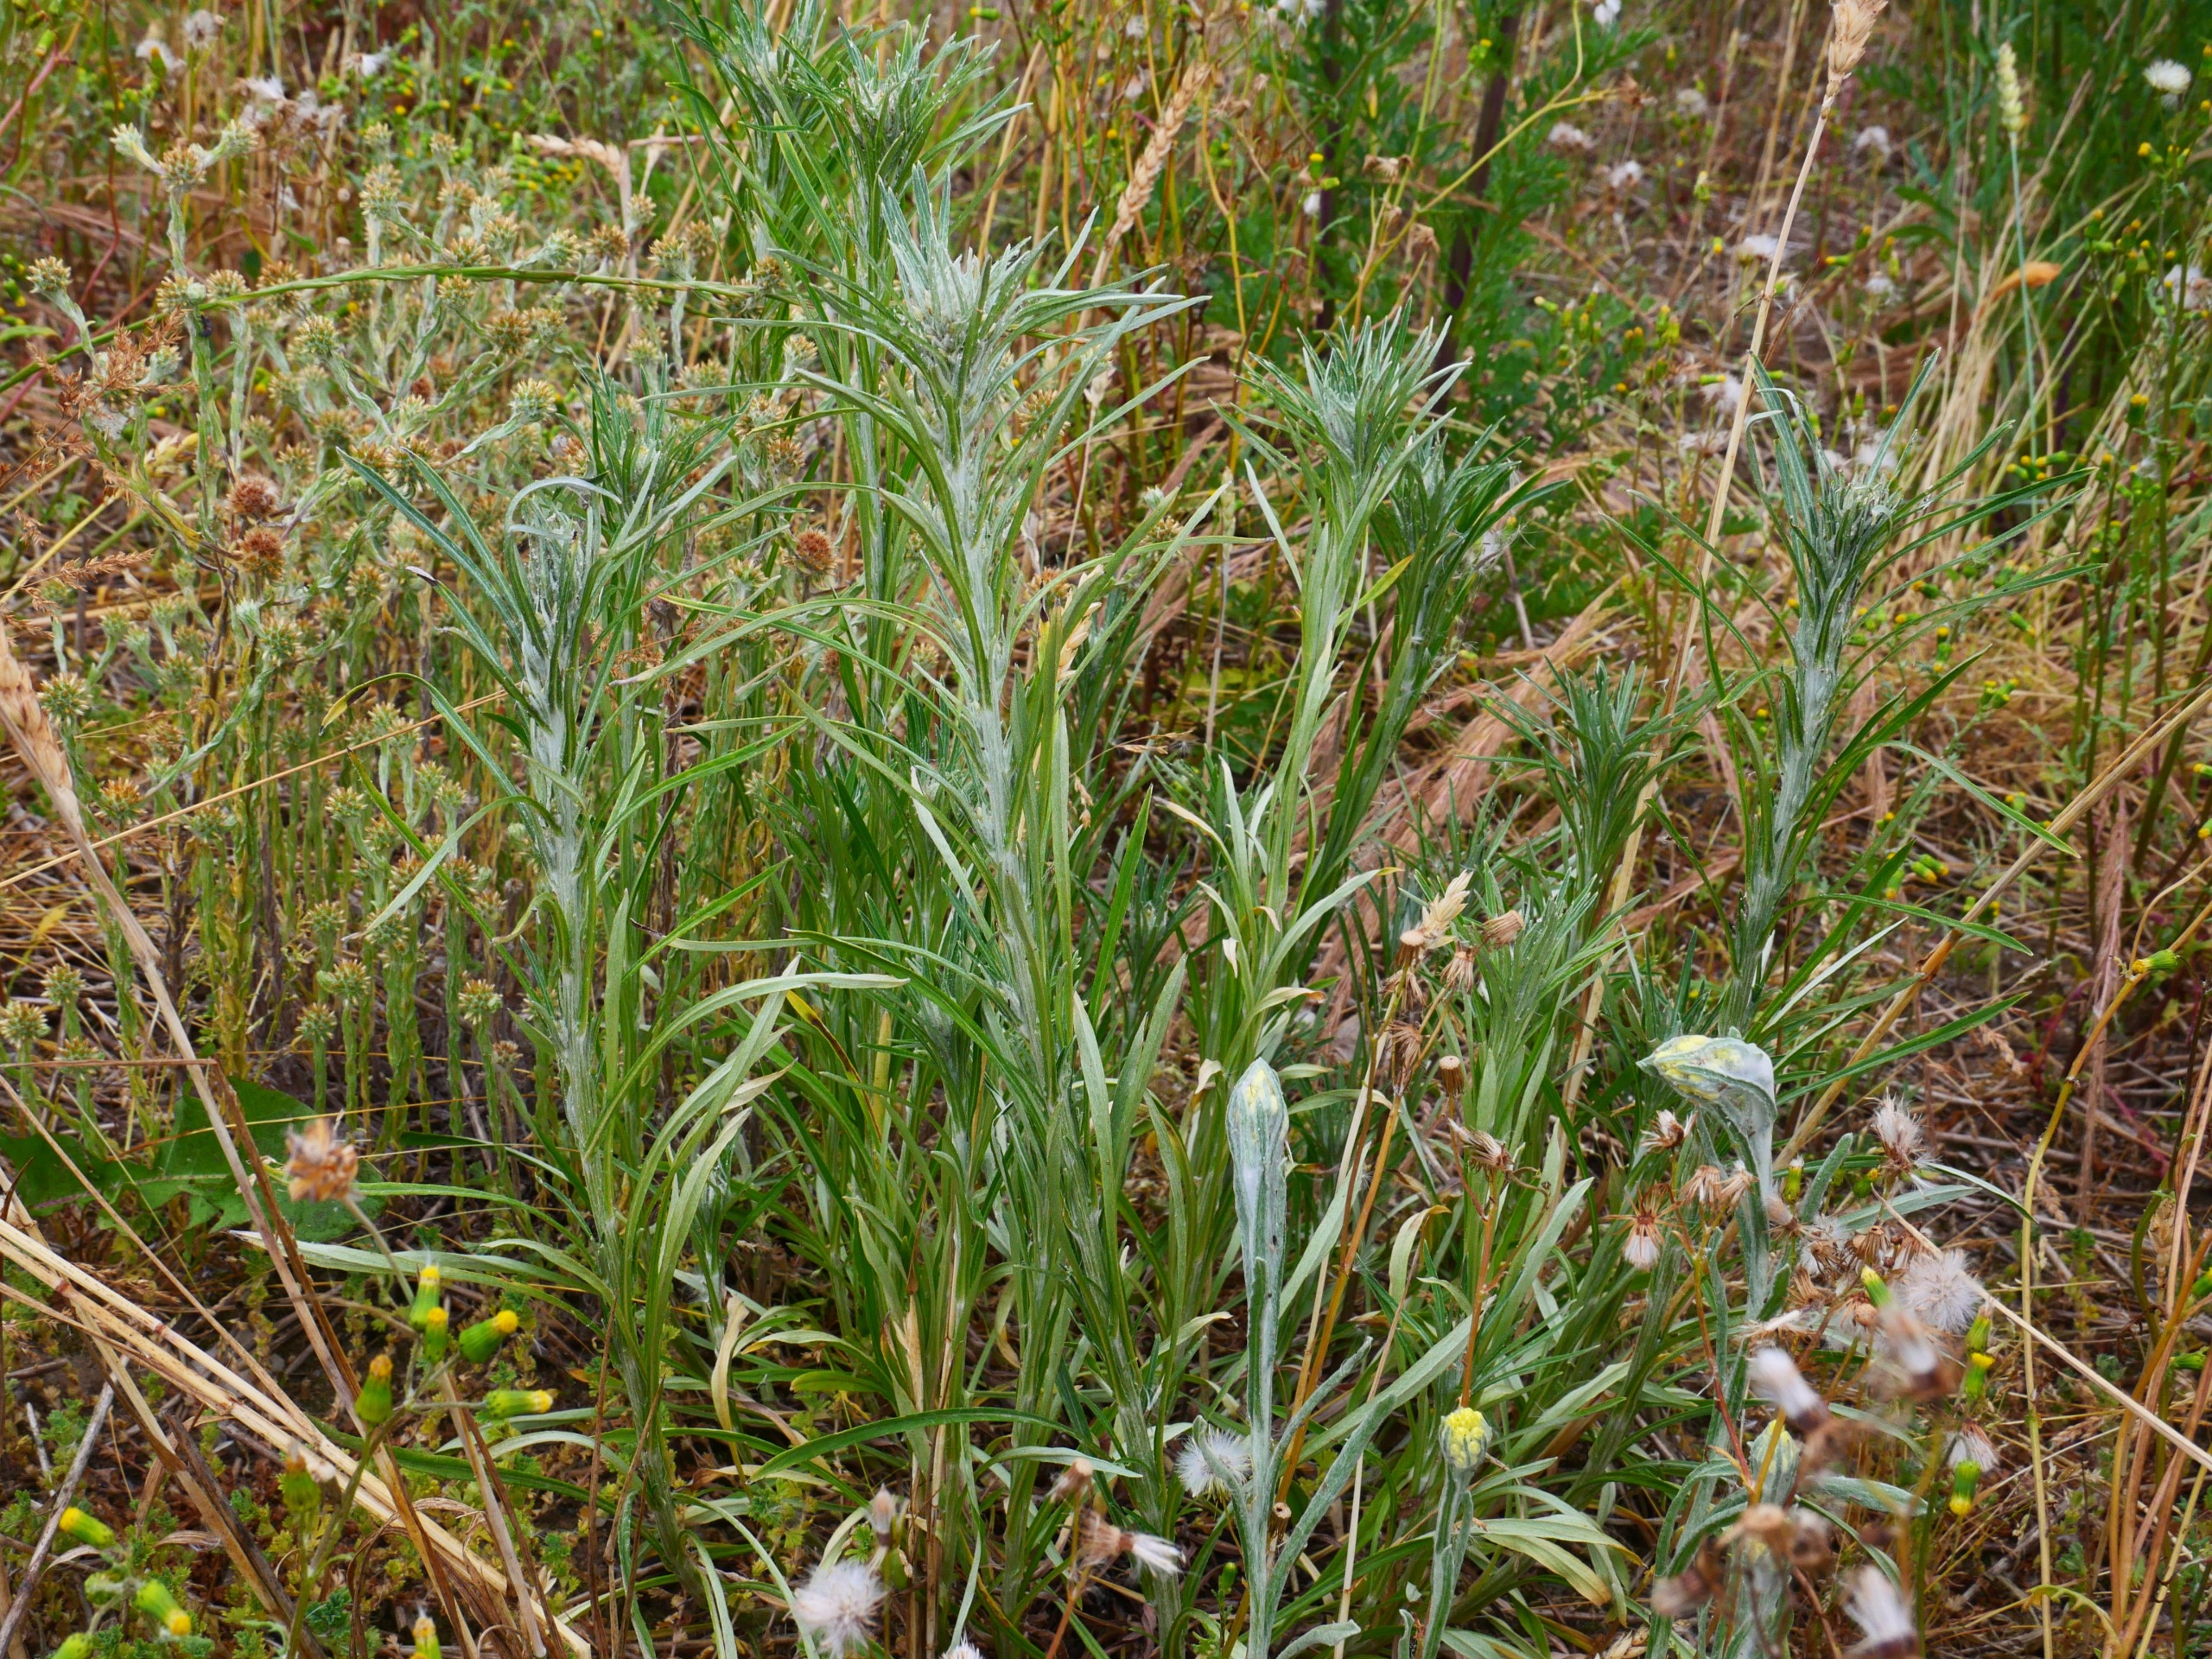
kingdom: Plantae
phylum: Tracheophyta
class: Magnoliopsida
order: Asterales
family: Asteraceae
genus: Omalotheca
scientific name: Omalotheca sylvatica
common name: Rank evighedsblomst
